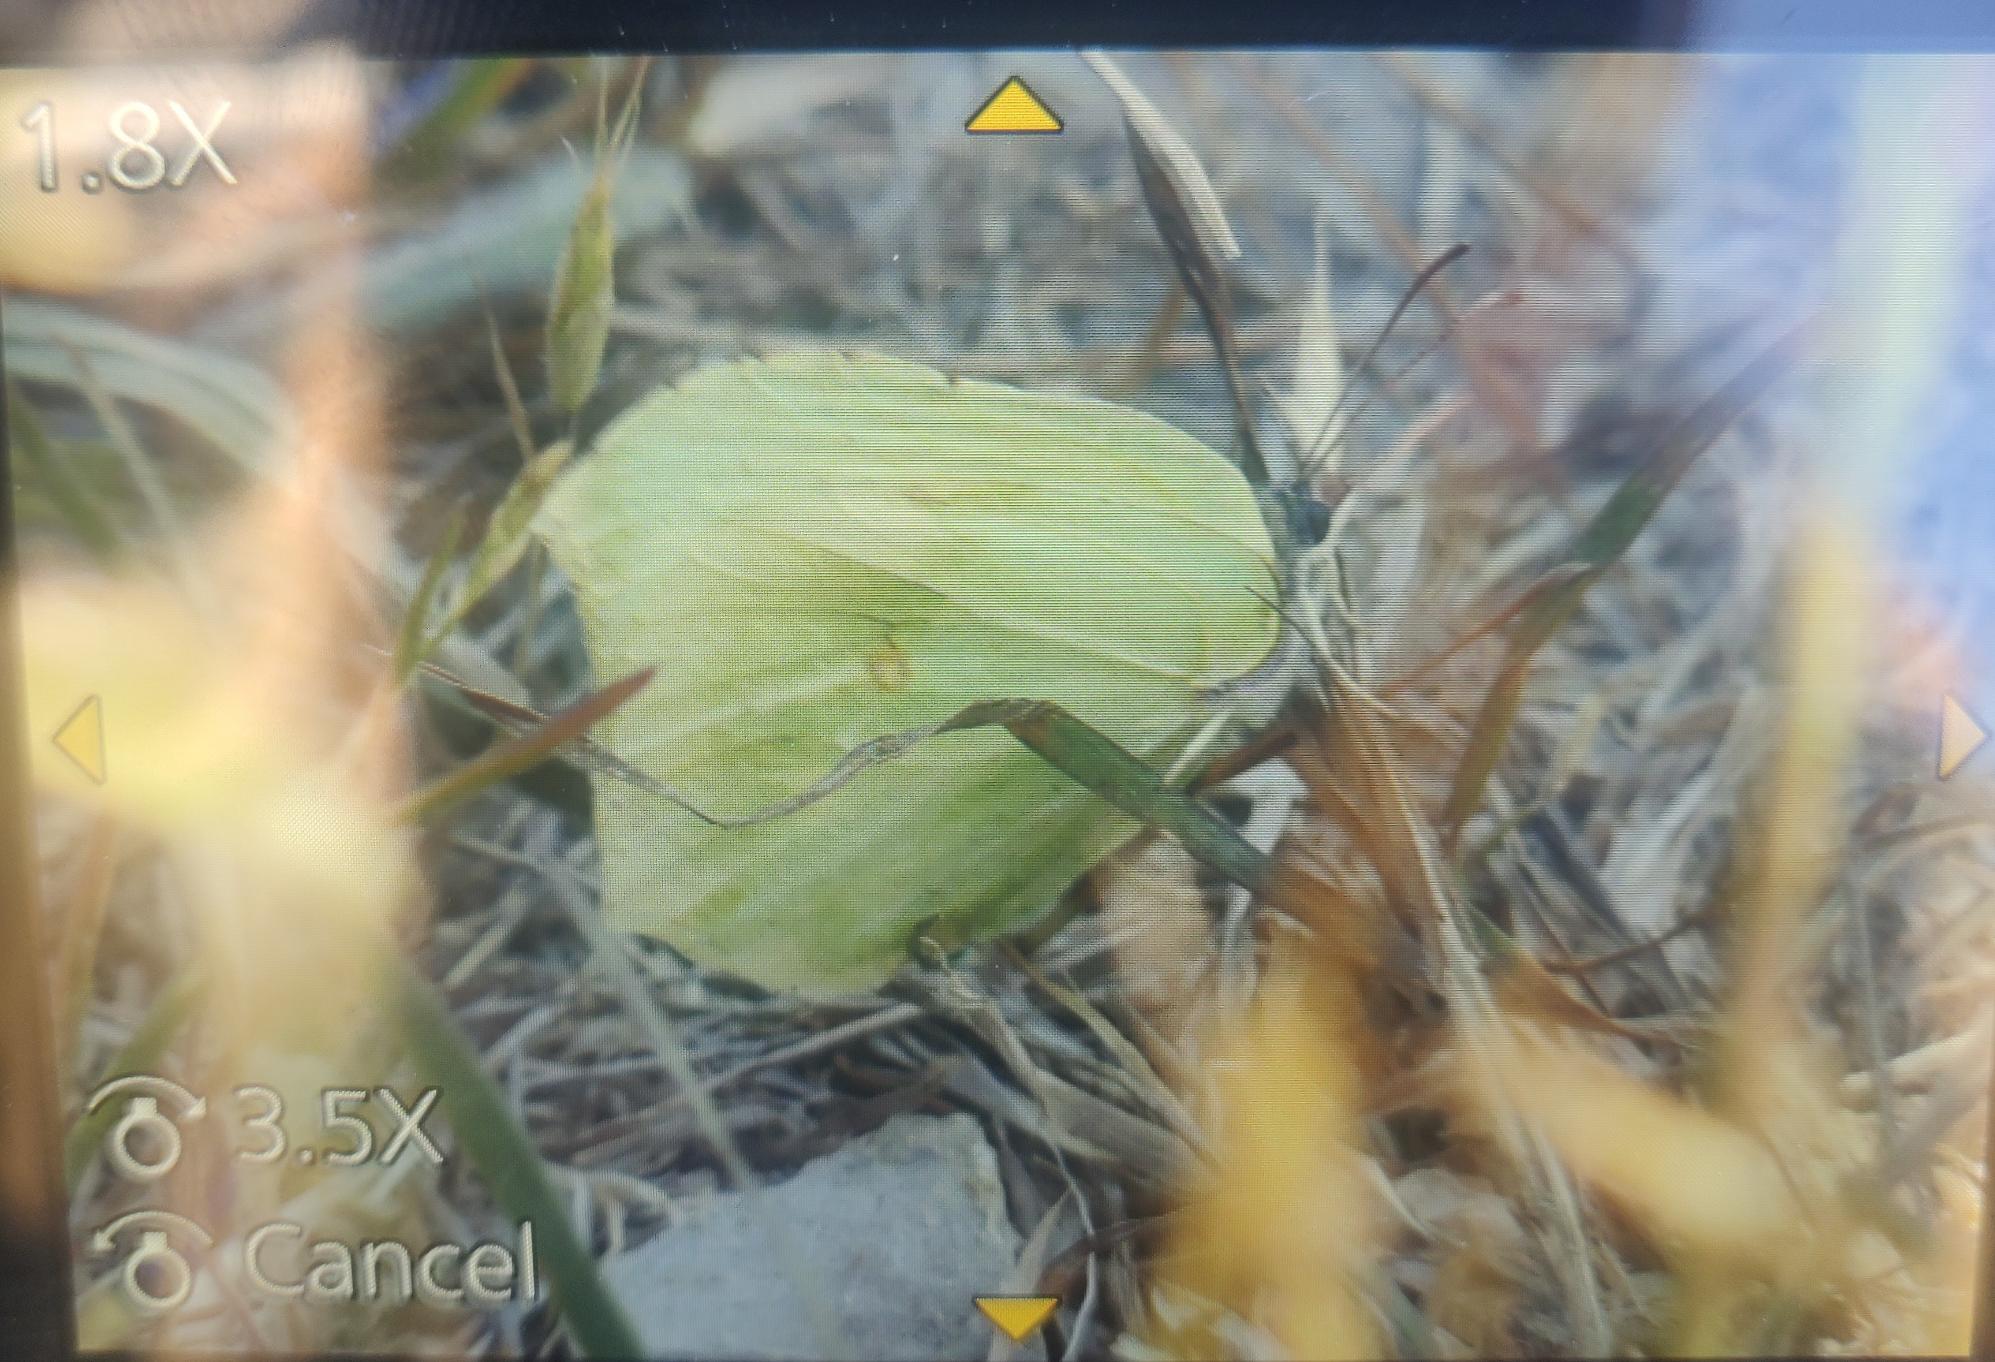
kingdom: Animalia
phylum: Arthropoda
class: Insecta
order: Lepidoptera
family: Pieridae
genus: Gonepteryx
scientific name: Gonepteryx rhamni
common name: Citronsommerfugl
